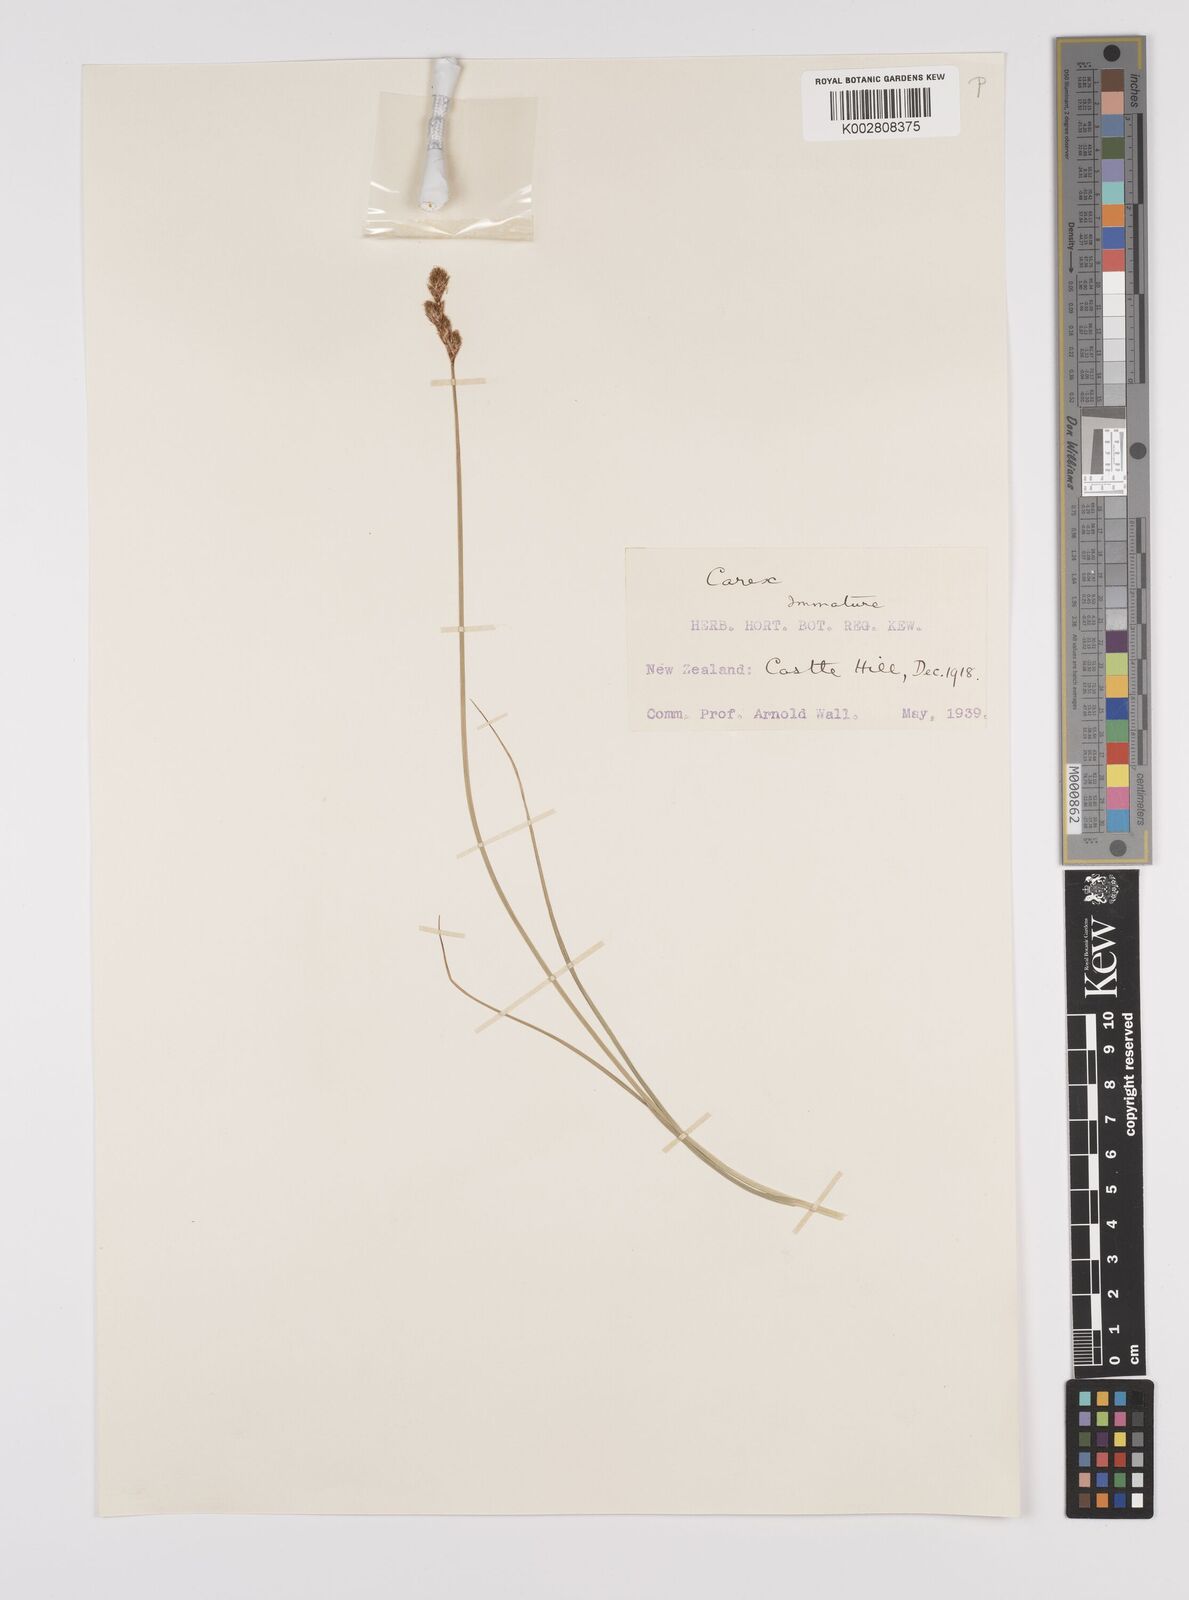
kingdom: Plantae
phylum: Tracheophyta
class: Liliopsida
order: Poales
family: Cyperaceae
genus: Carex
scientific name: Carex leporina
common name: Oval sedge
